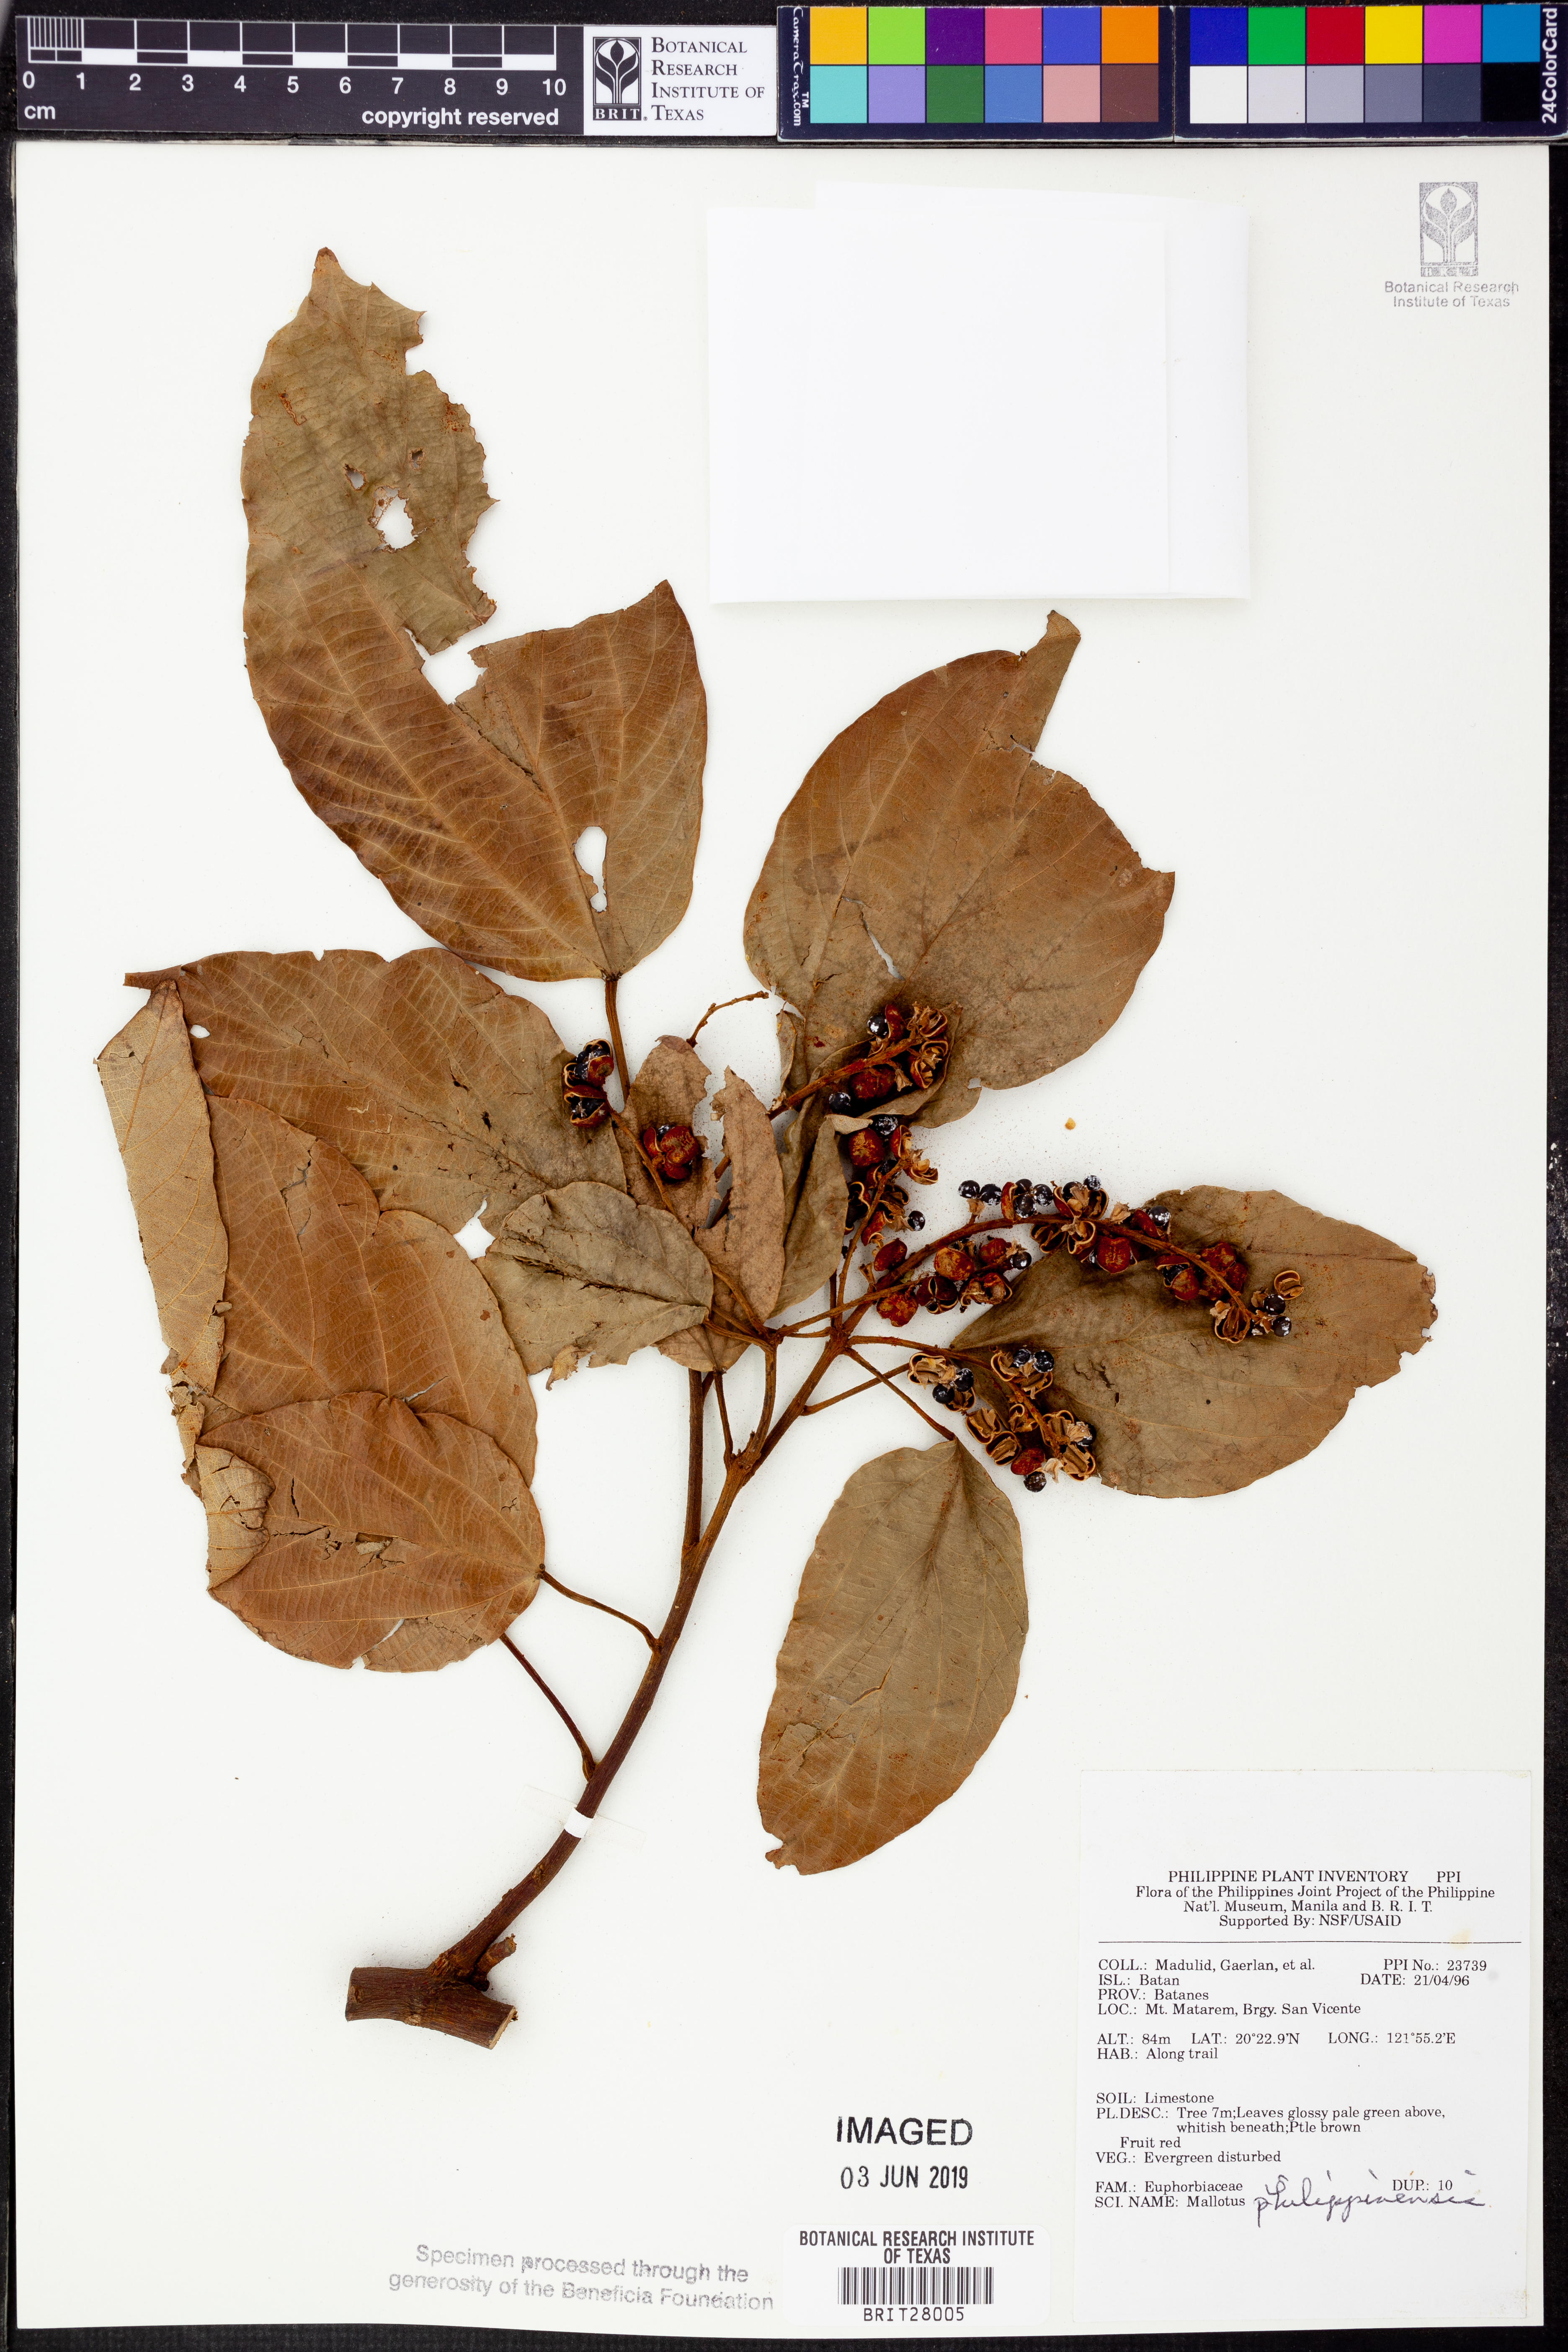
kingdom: Plantae
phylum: Tracheophyta
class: Magnoliopsida
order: Malpighiales
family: Euphorbiaceae
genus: Mallotus
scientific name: Mallotus philippensis
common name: Kamala tree
